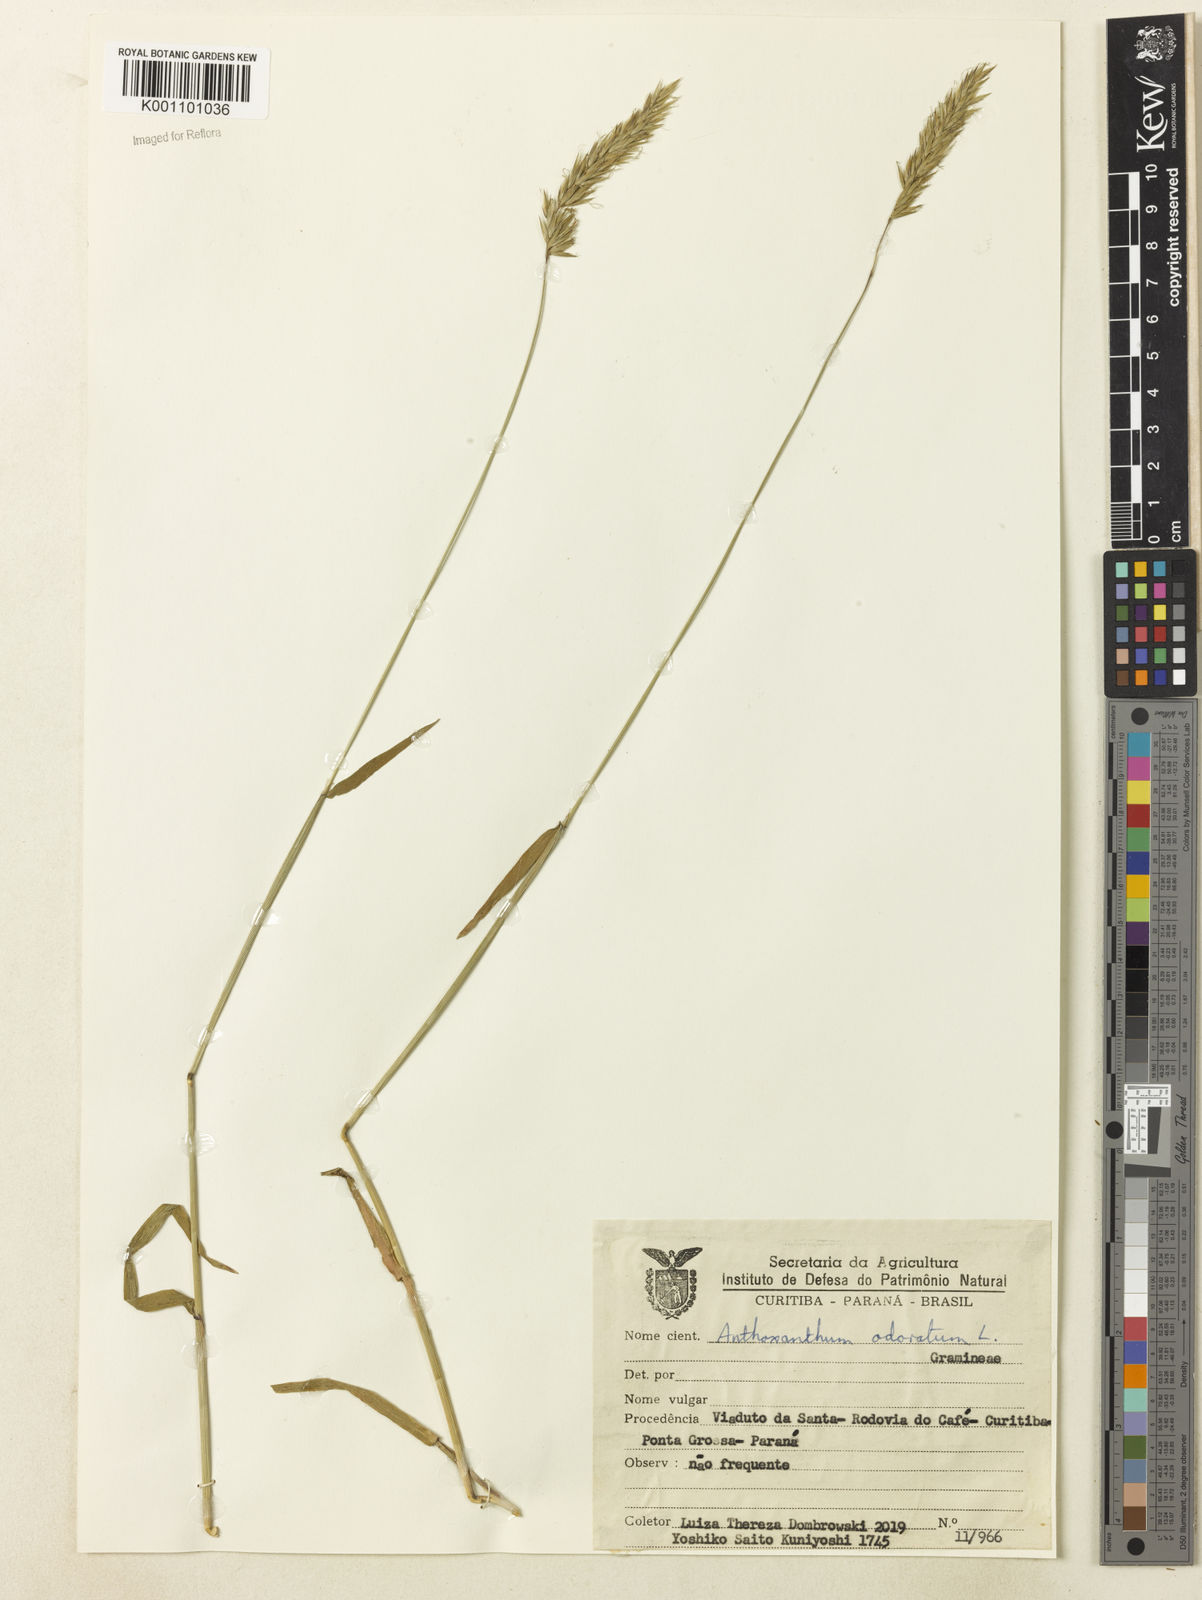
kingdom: Plantae
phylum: Tracheophyta
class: Liliopsida
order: Poales
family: Poaceae
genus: Anthoxanthum
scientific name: Anthoxanthum odoratum
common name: Sweet vernalgrass
